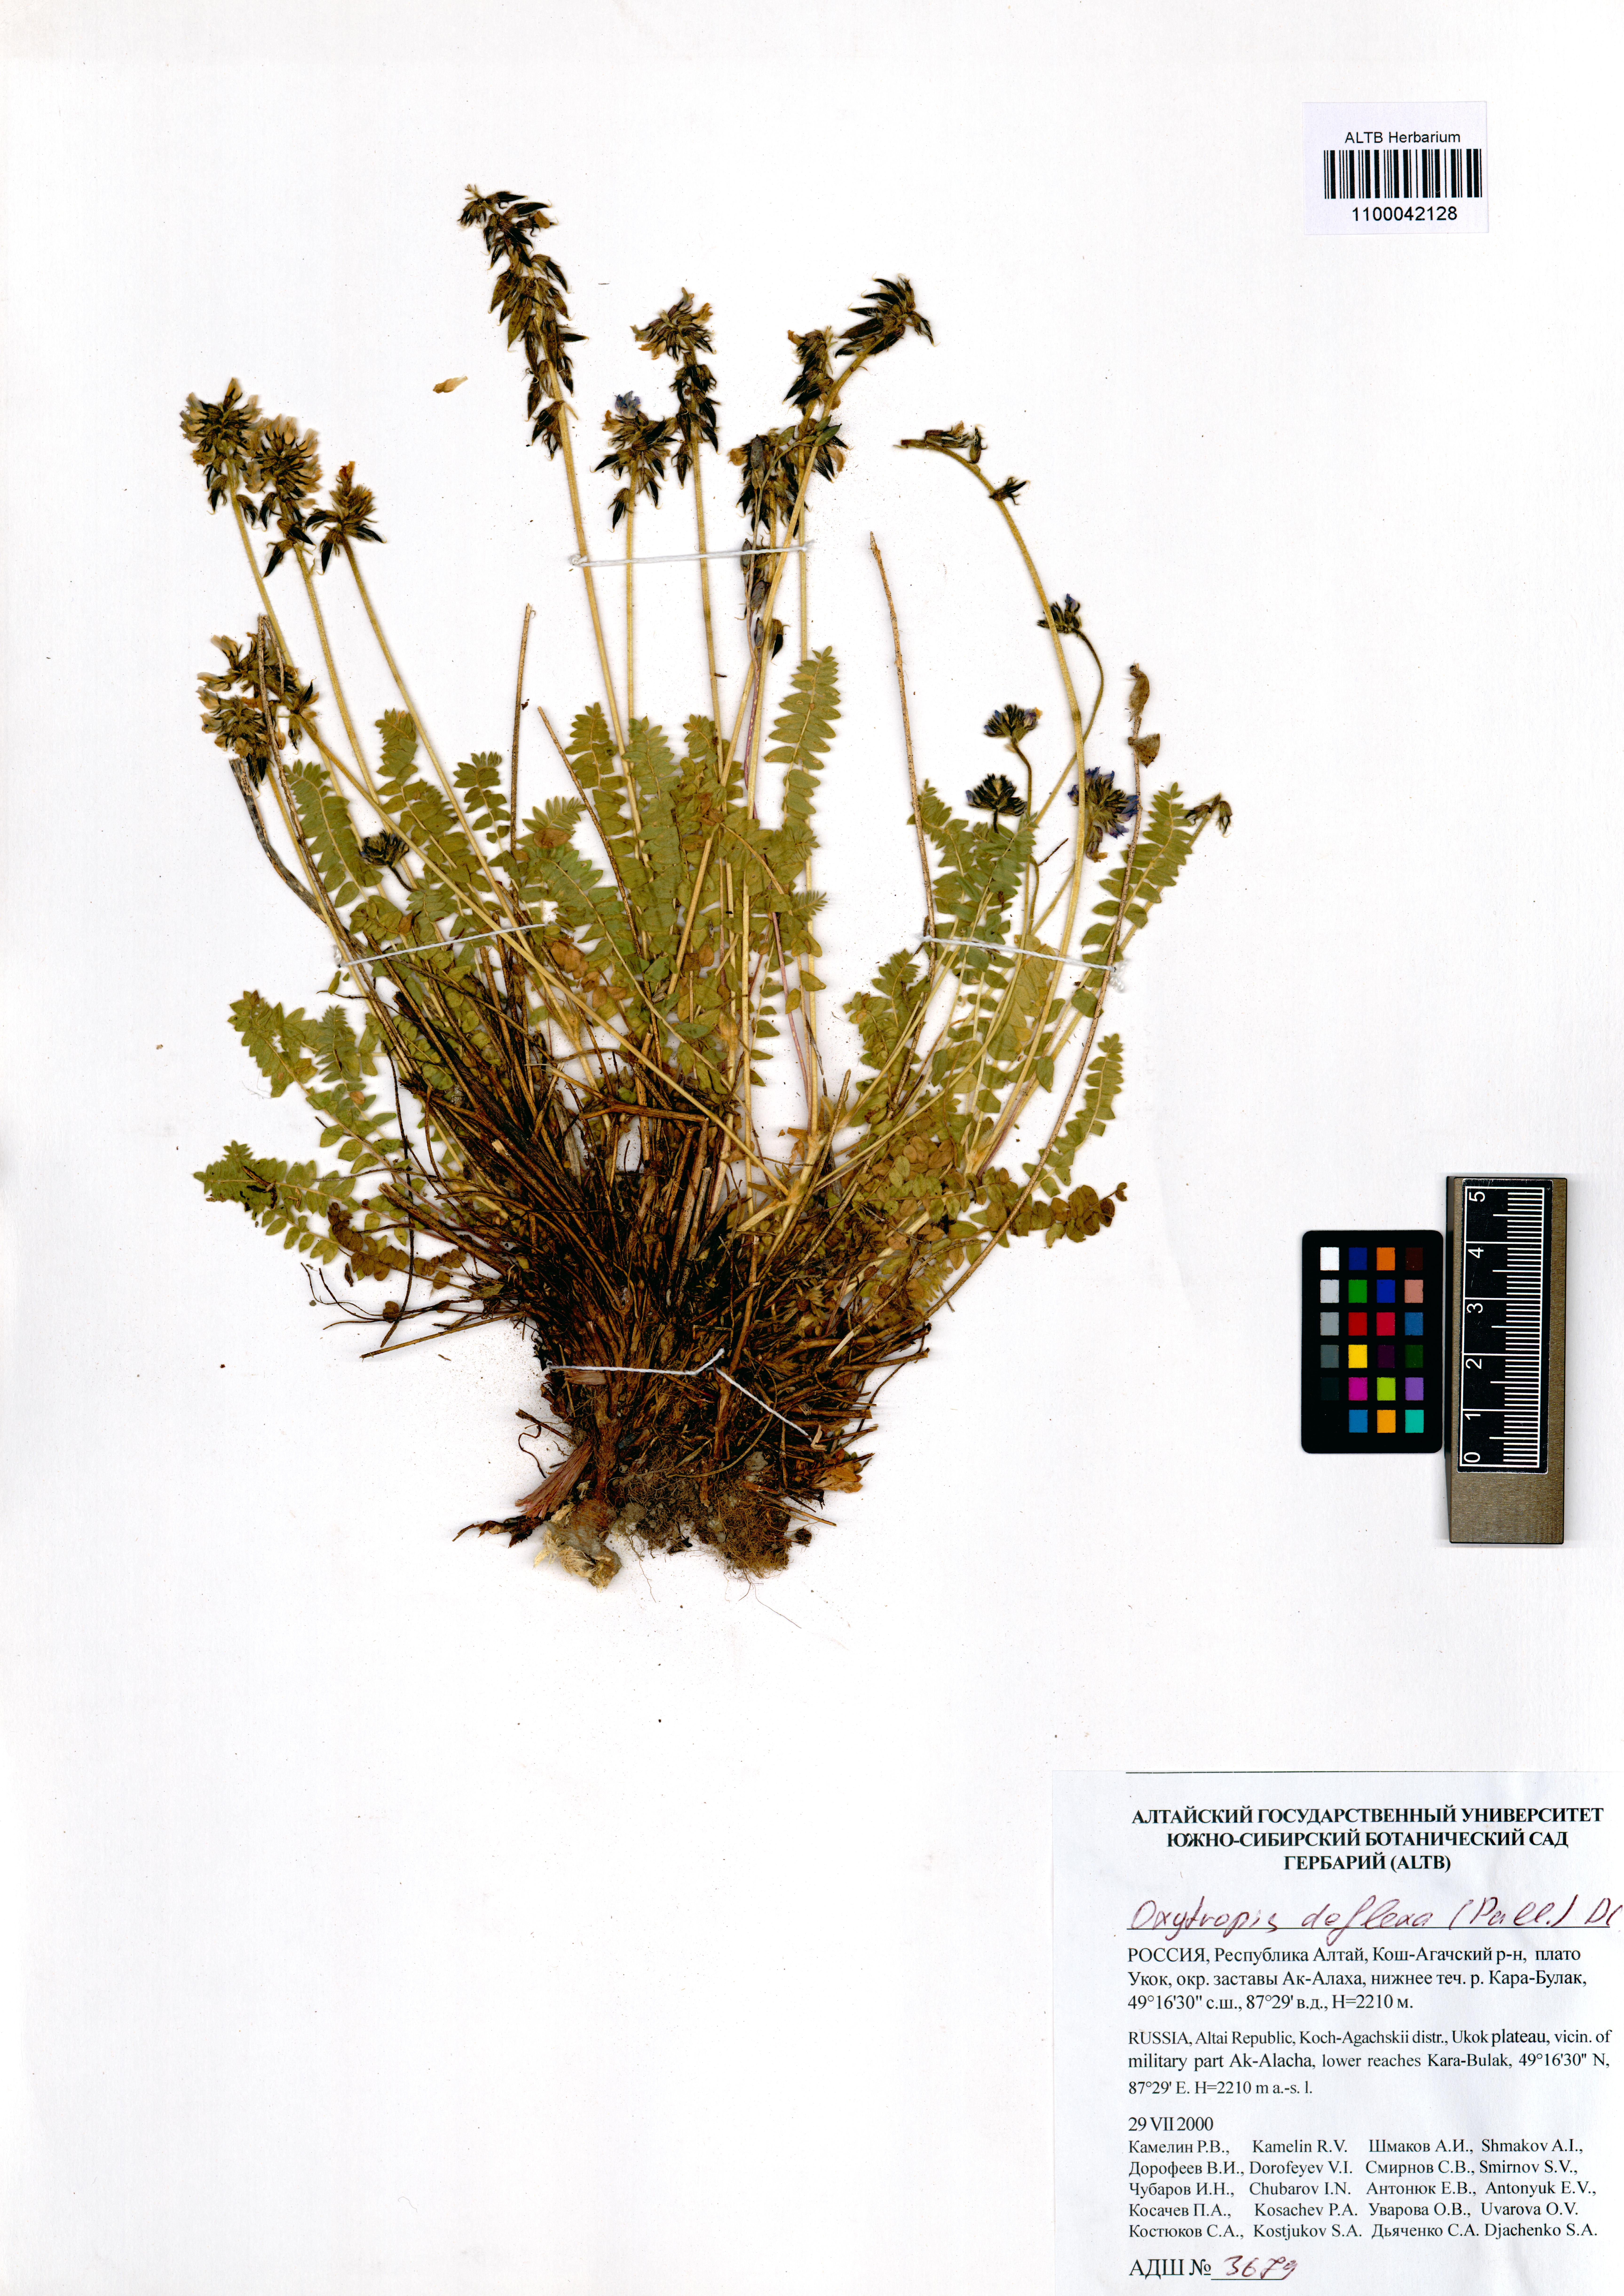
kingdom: Plantae
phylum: Tracheophyta
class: Magnoliopsida
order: Fabales
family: Fabaceae
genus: Oxytropis
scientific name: Oxytropis deflexa
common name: Stemmed oxytrope
